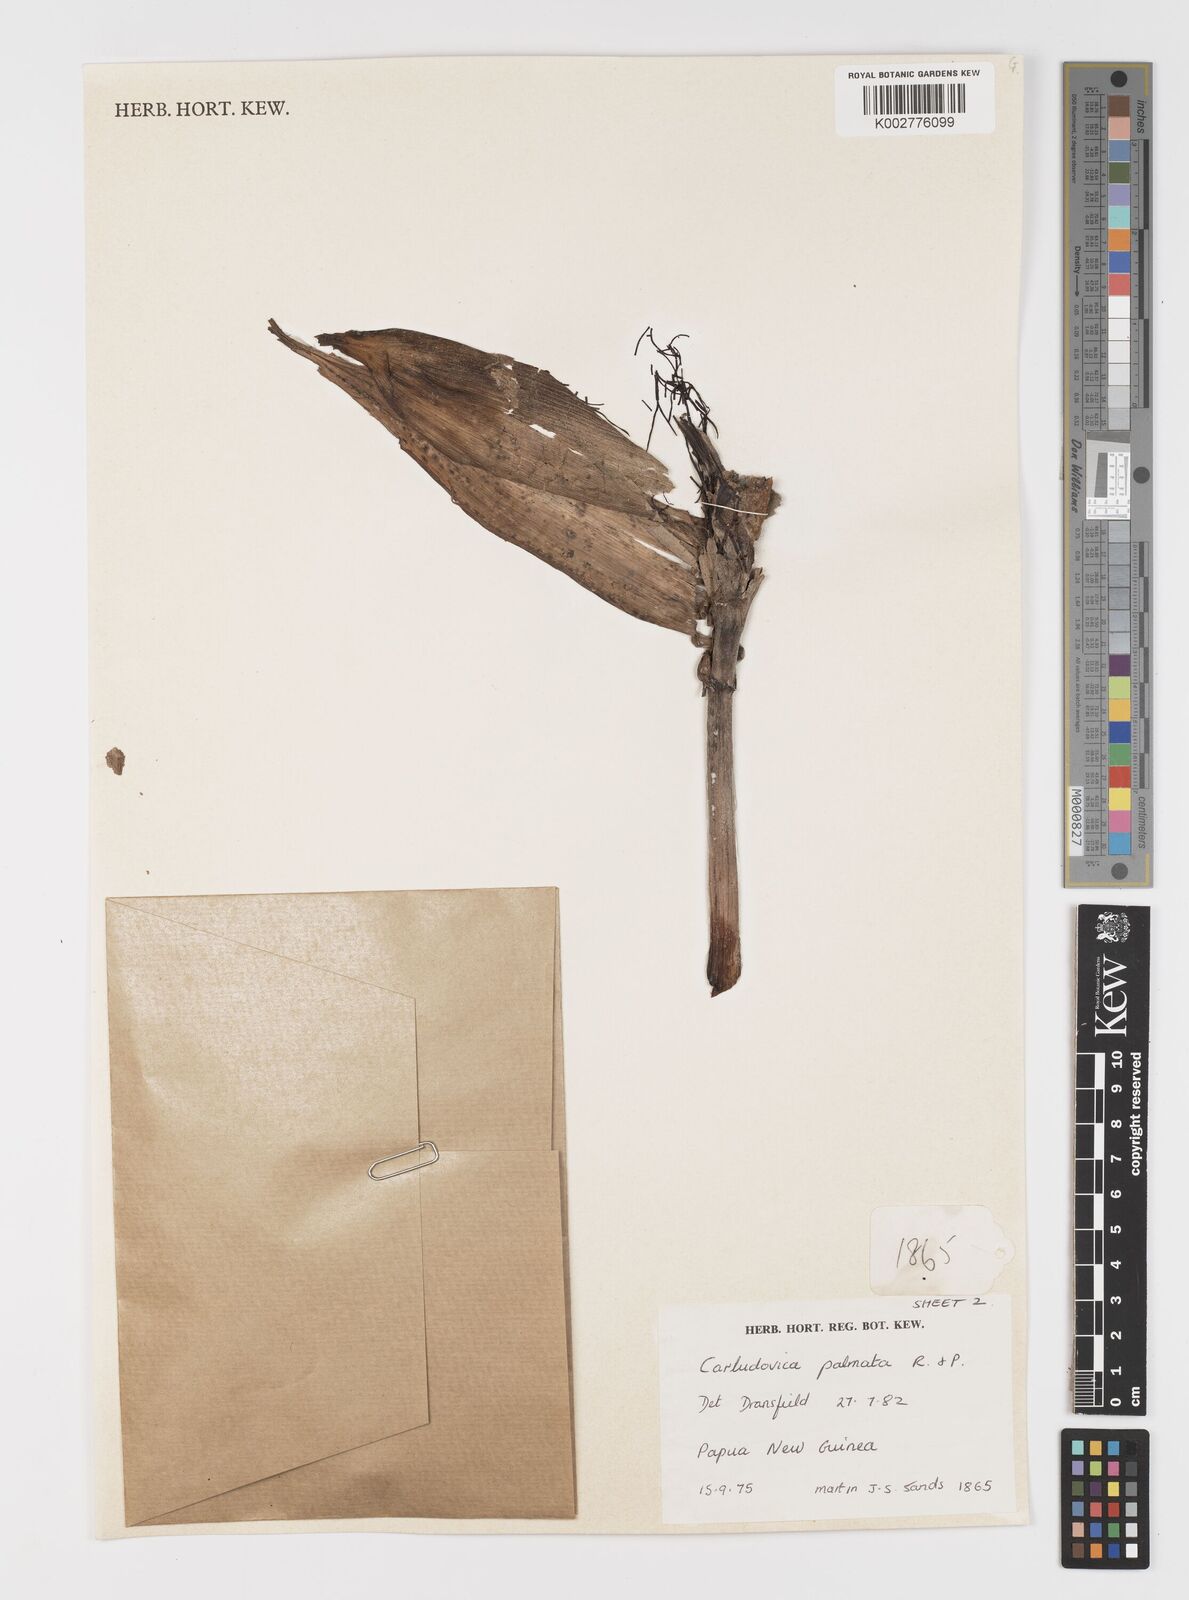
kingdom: Plantae
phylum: Tracheophyta
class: Liliopsida
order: Pandanales
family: Cyclanthaceae
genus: Carludovica
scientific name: Carludovica palmata
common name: Panama hat plant
